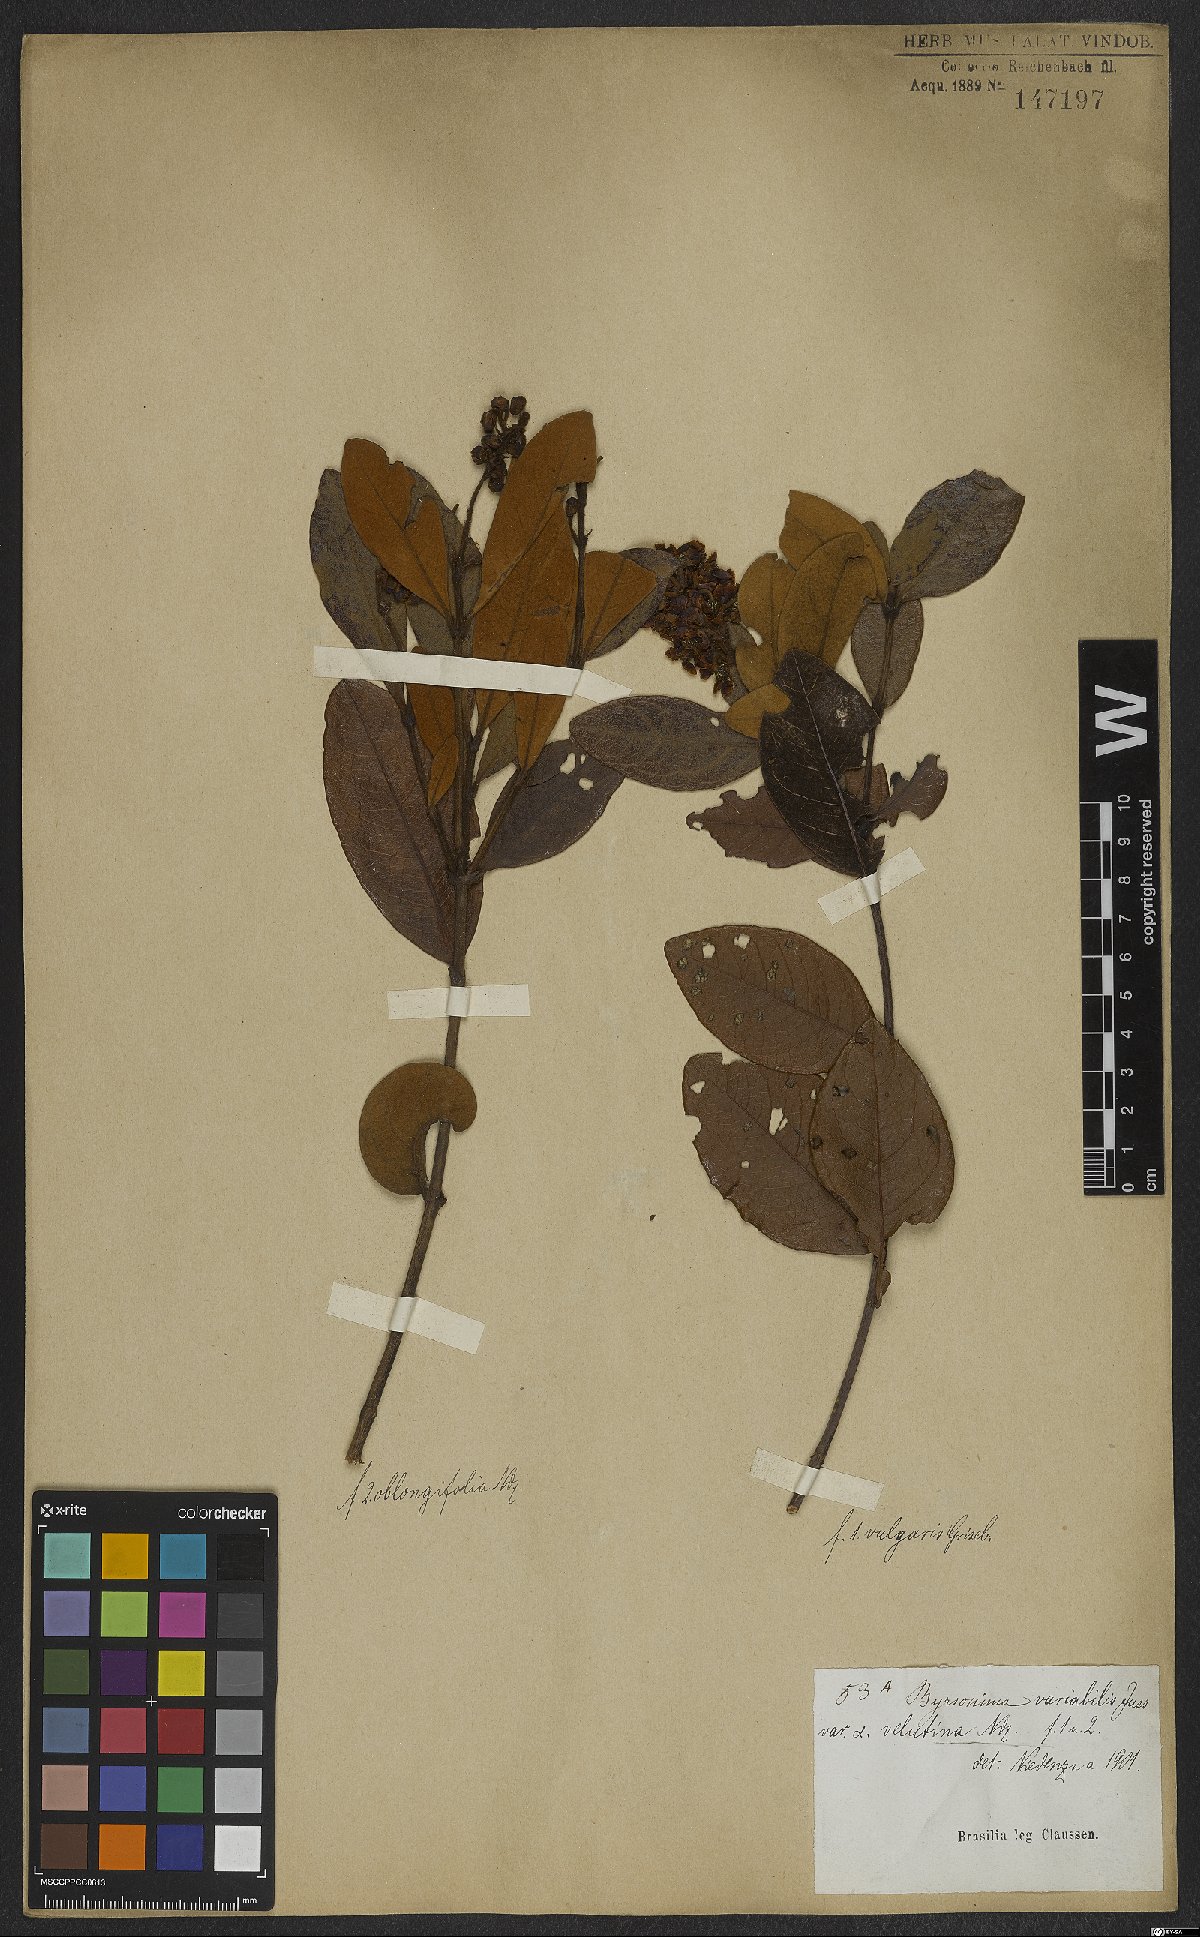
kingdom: Plantae
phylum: Tracheophyta
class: Magnoliopsida
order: Malpighiales
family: Malpighiaceae
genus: Byrsonima
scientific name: Byrsonima variabilis
